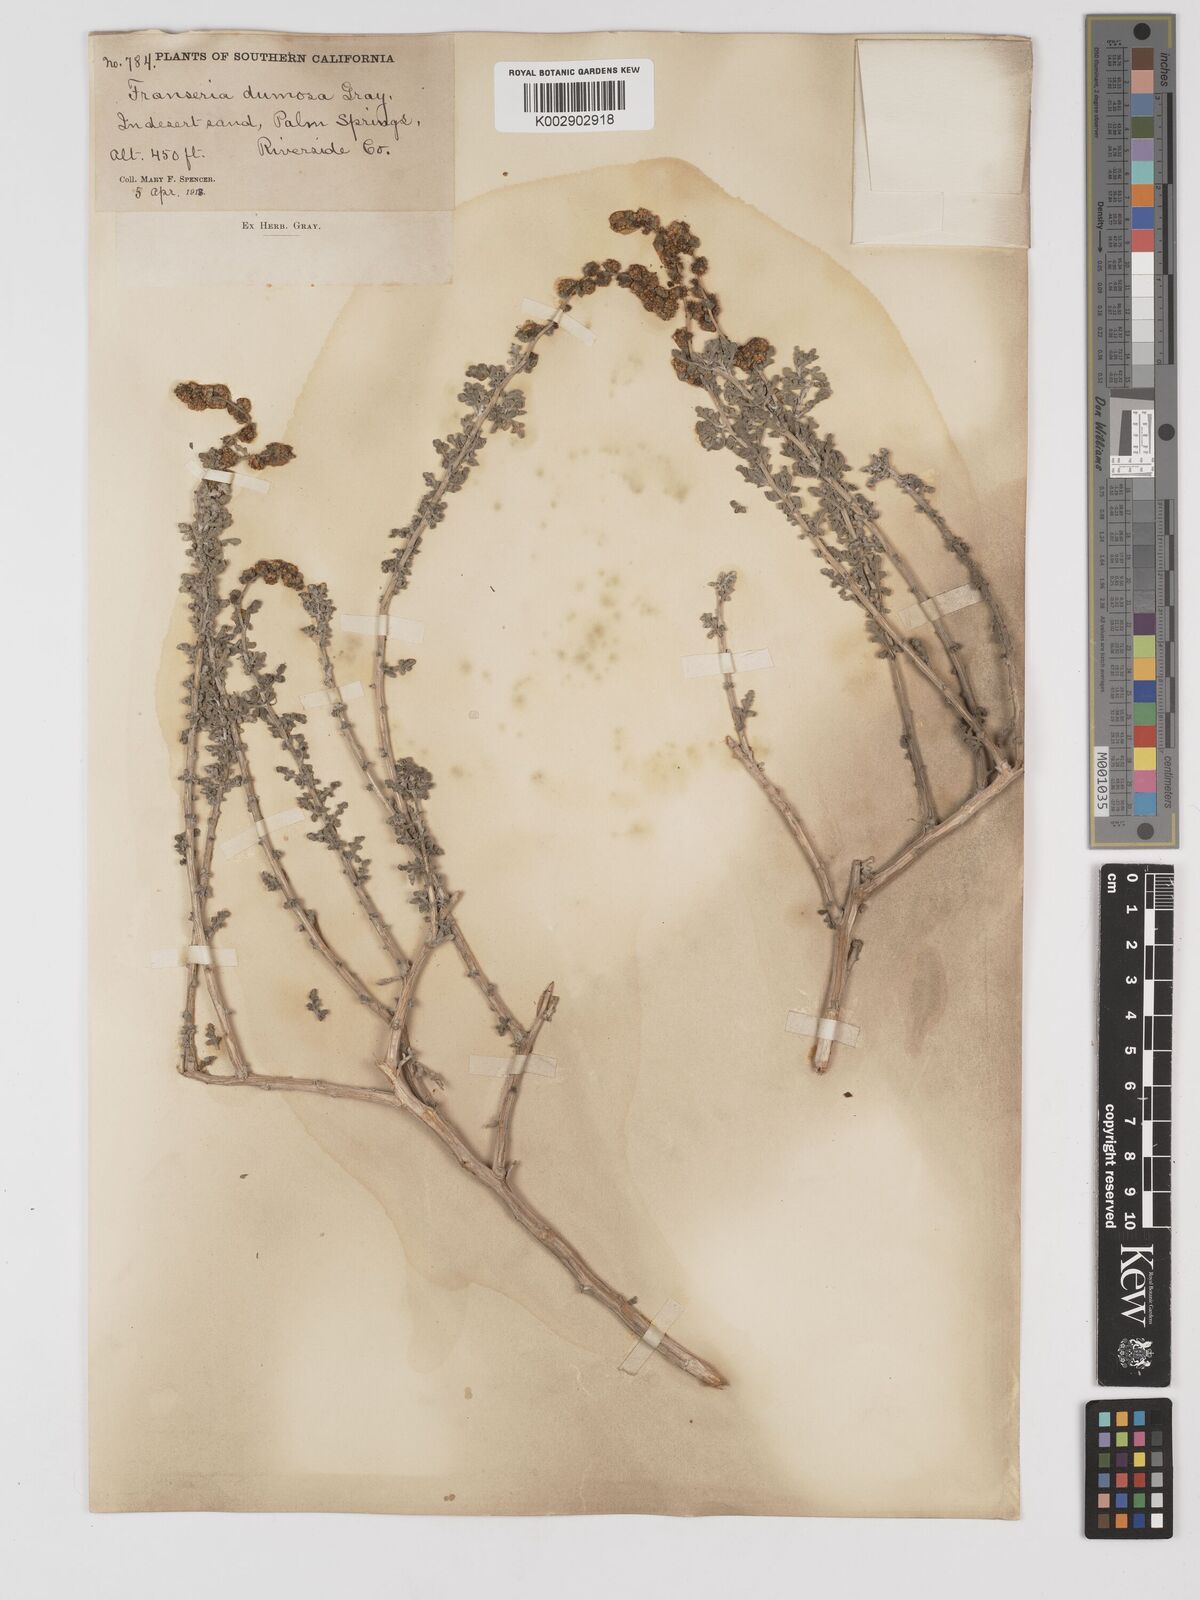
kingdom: Plantae
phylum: Tracheophyta
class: Magnoliopsida
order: Asterales
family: Asteraceae
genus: Ambrosia
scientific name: Ambrosia dumosa
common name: Bur-sage
